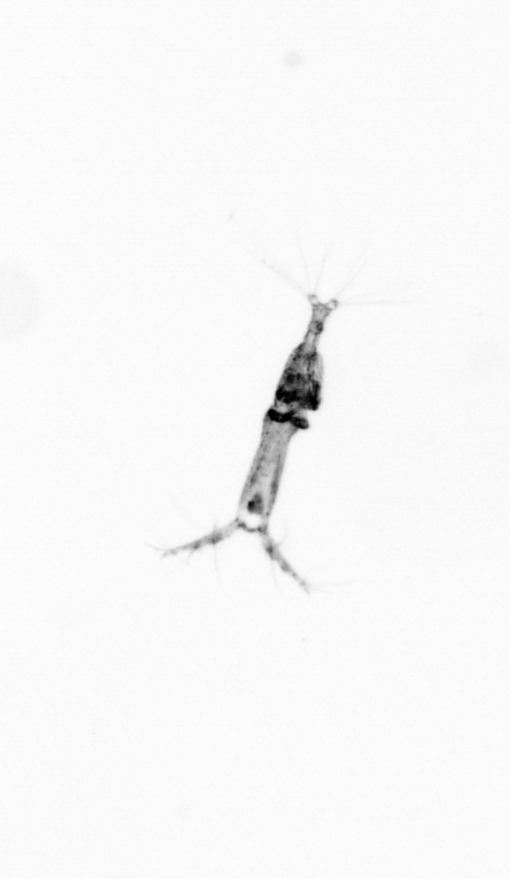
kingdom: Animalia
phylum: Arthropoda
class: Copepoda
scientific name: Copepoda
